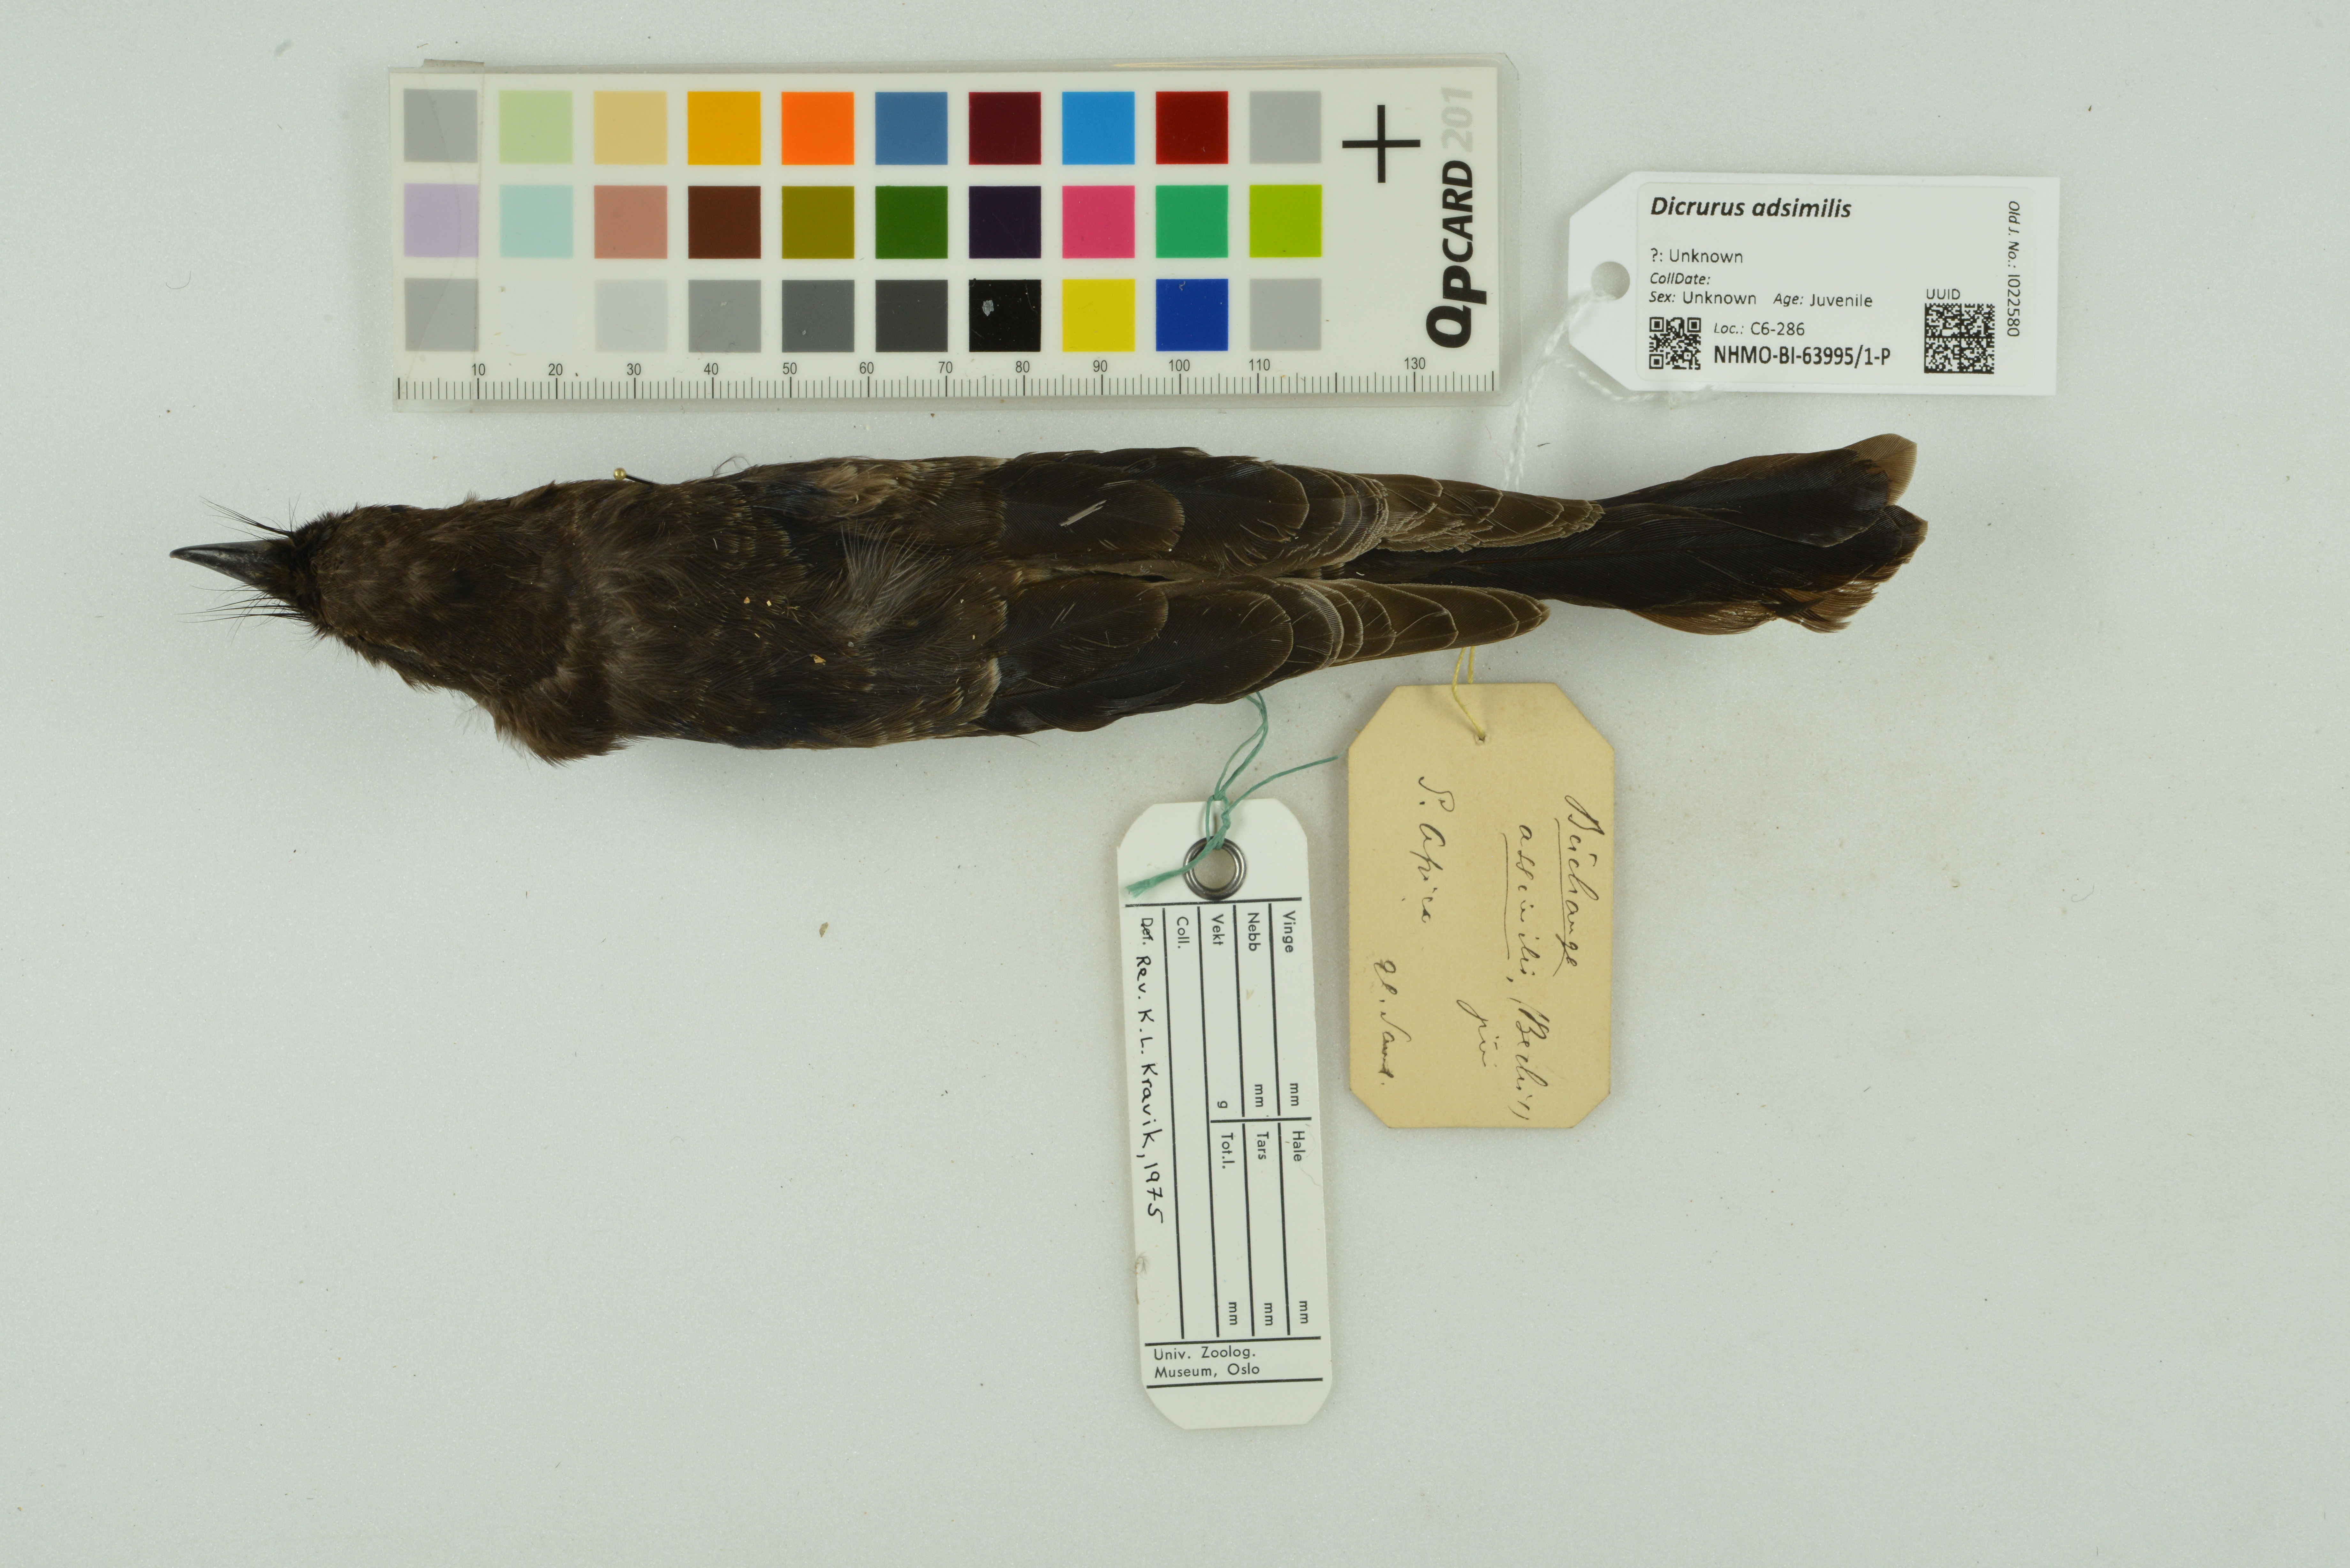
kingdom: Animalia
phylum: Chordata
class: Aves
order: Passeriformes
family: Dicruridae
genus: Dicrurus
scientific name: Dicrurus adsimilis
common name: Fork-tailed drongo
